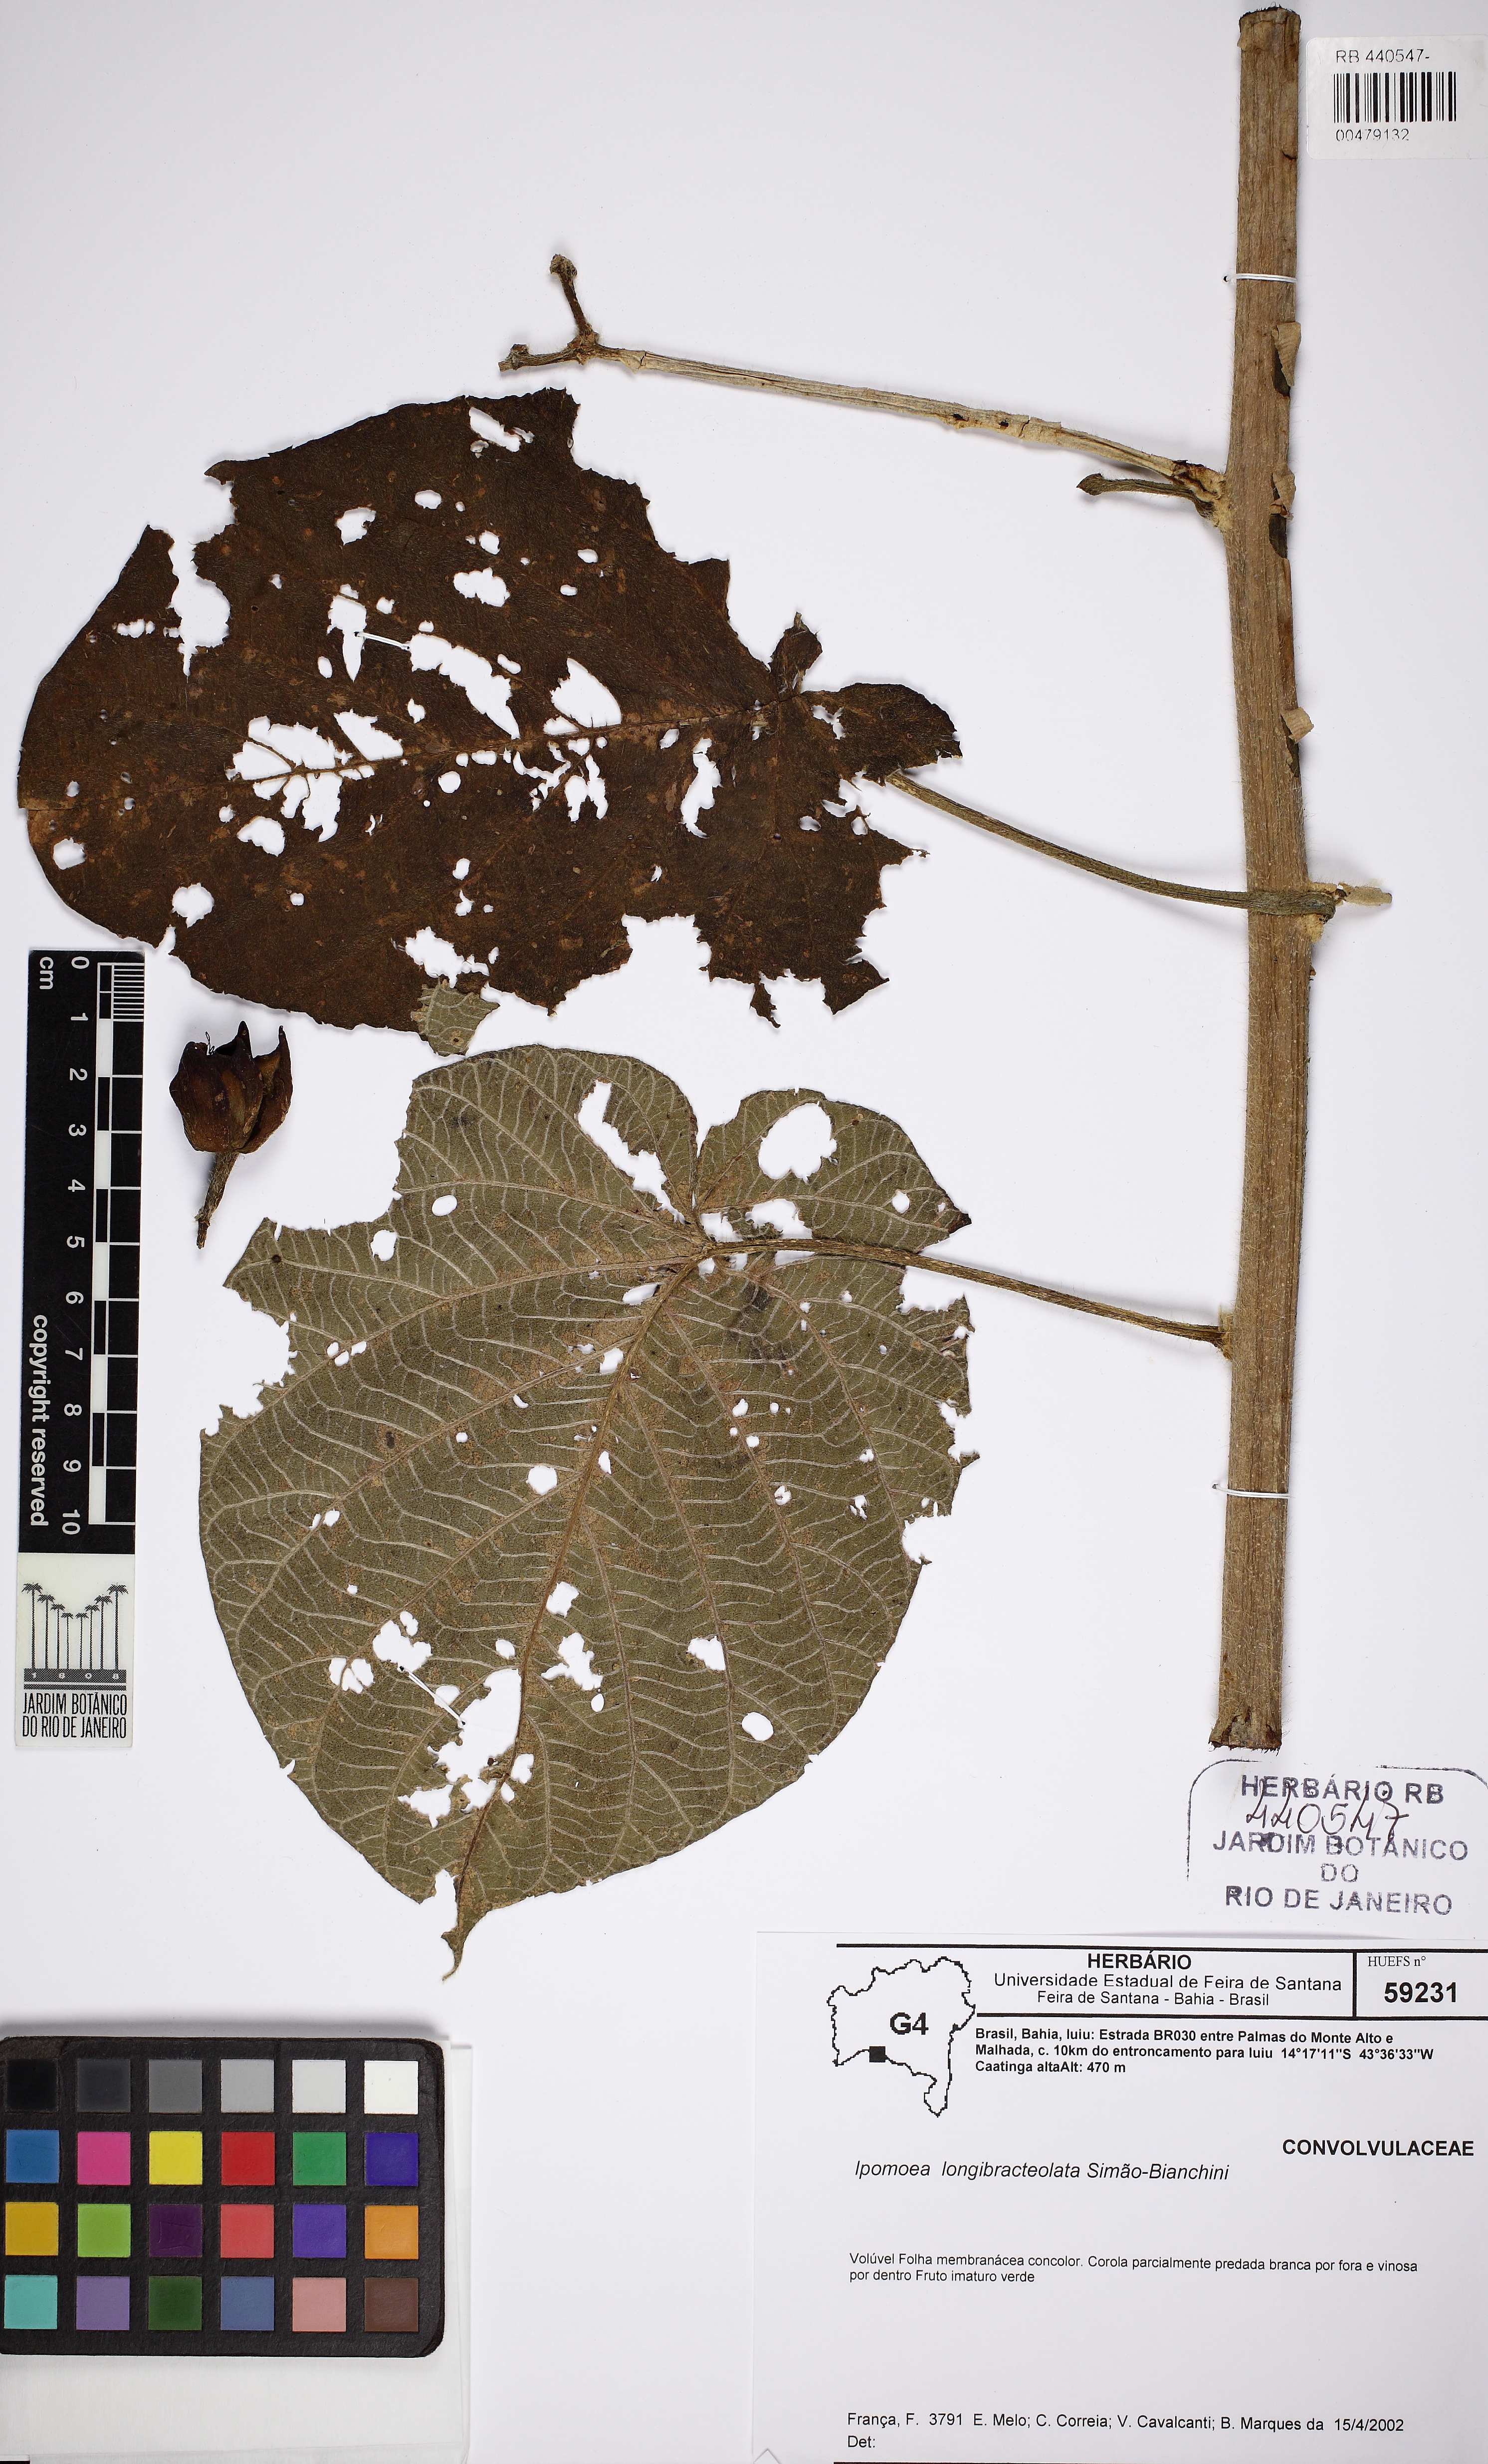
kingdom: Plantae
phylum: Tracheophyta
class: Magnoliopsida
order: Solanales
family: Convolvulaceae
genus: Ipomoea
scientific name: Ipomoea longibracteolata
